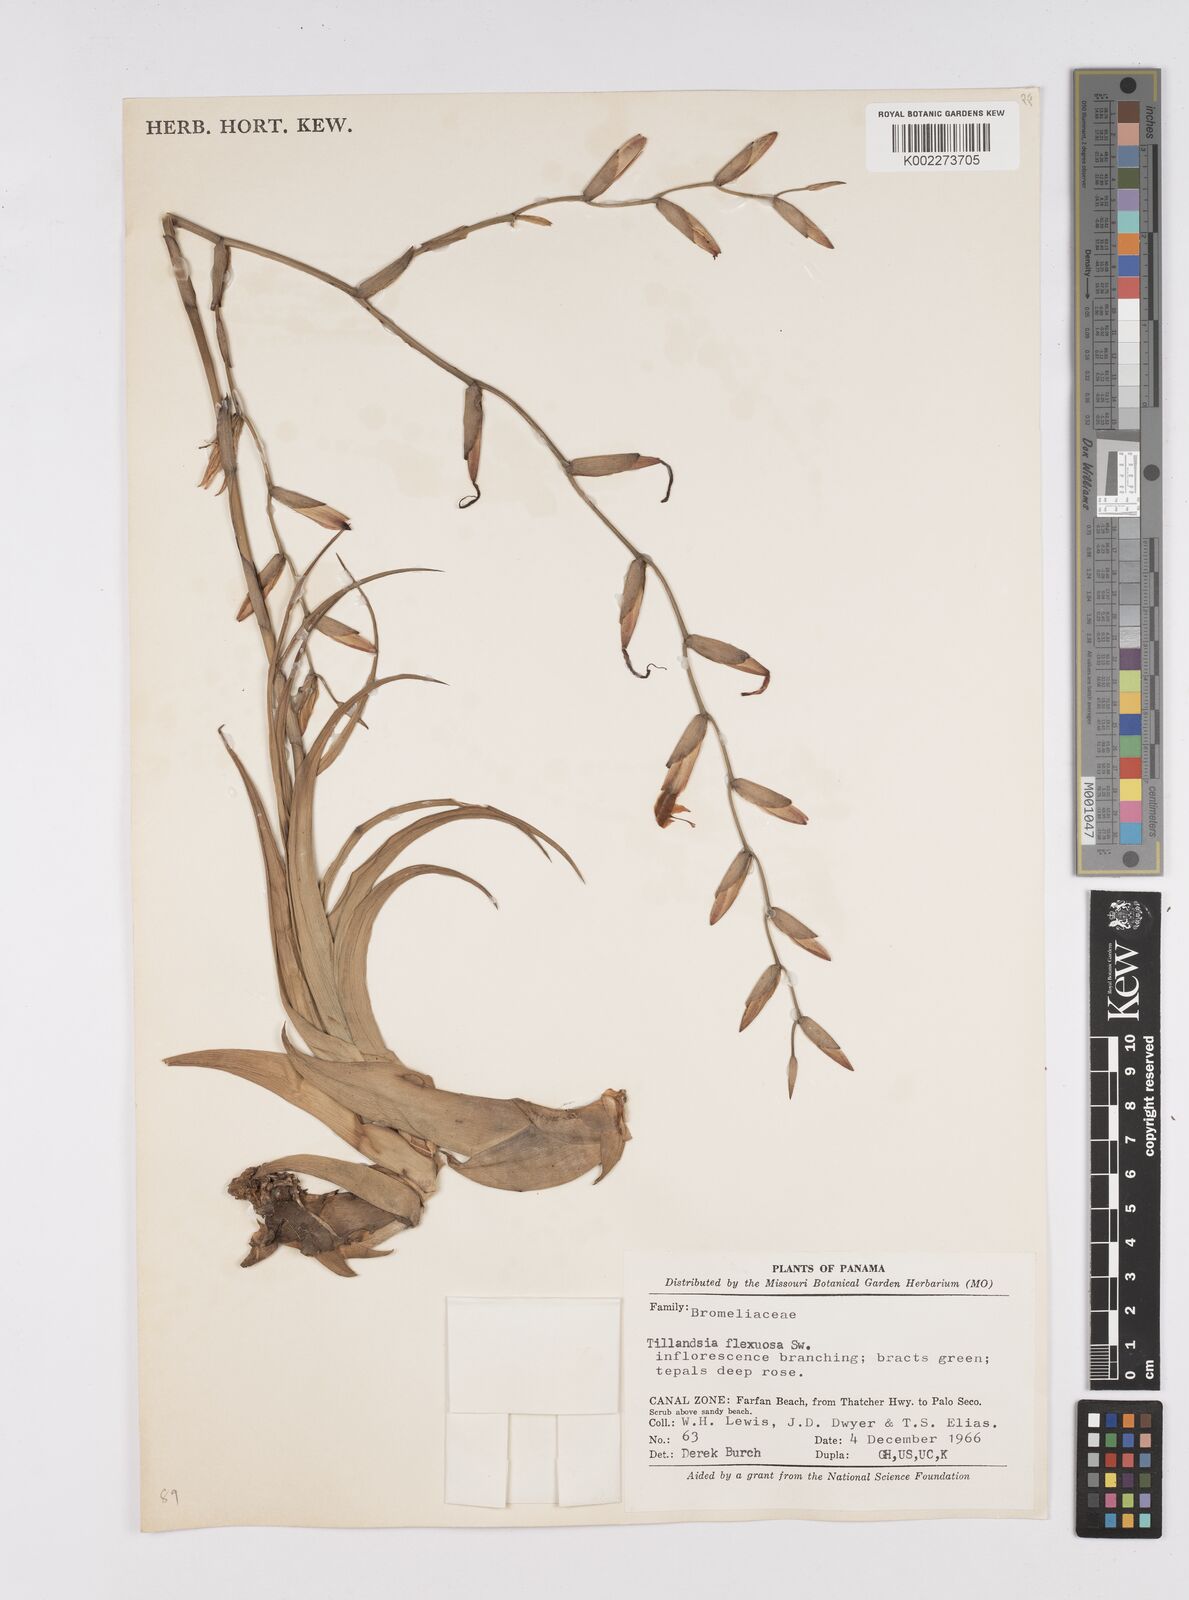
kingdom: Plantae
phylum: Tracheophyta
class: Liliopsida
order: Poales
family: Bromeliaceae
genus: Tillandsia
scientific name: Tillandsia flexuosa
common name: Banded airplant
